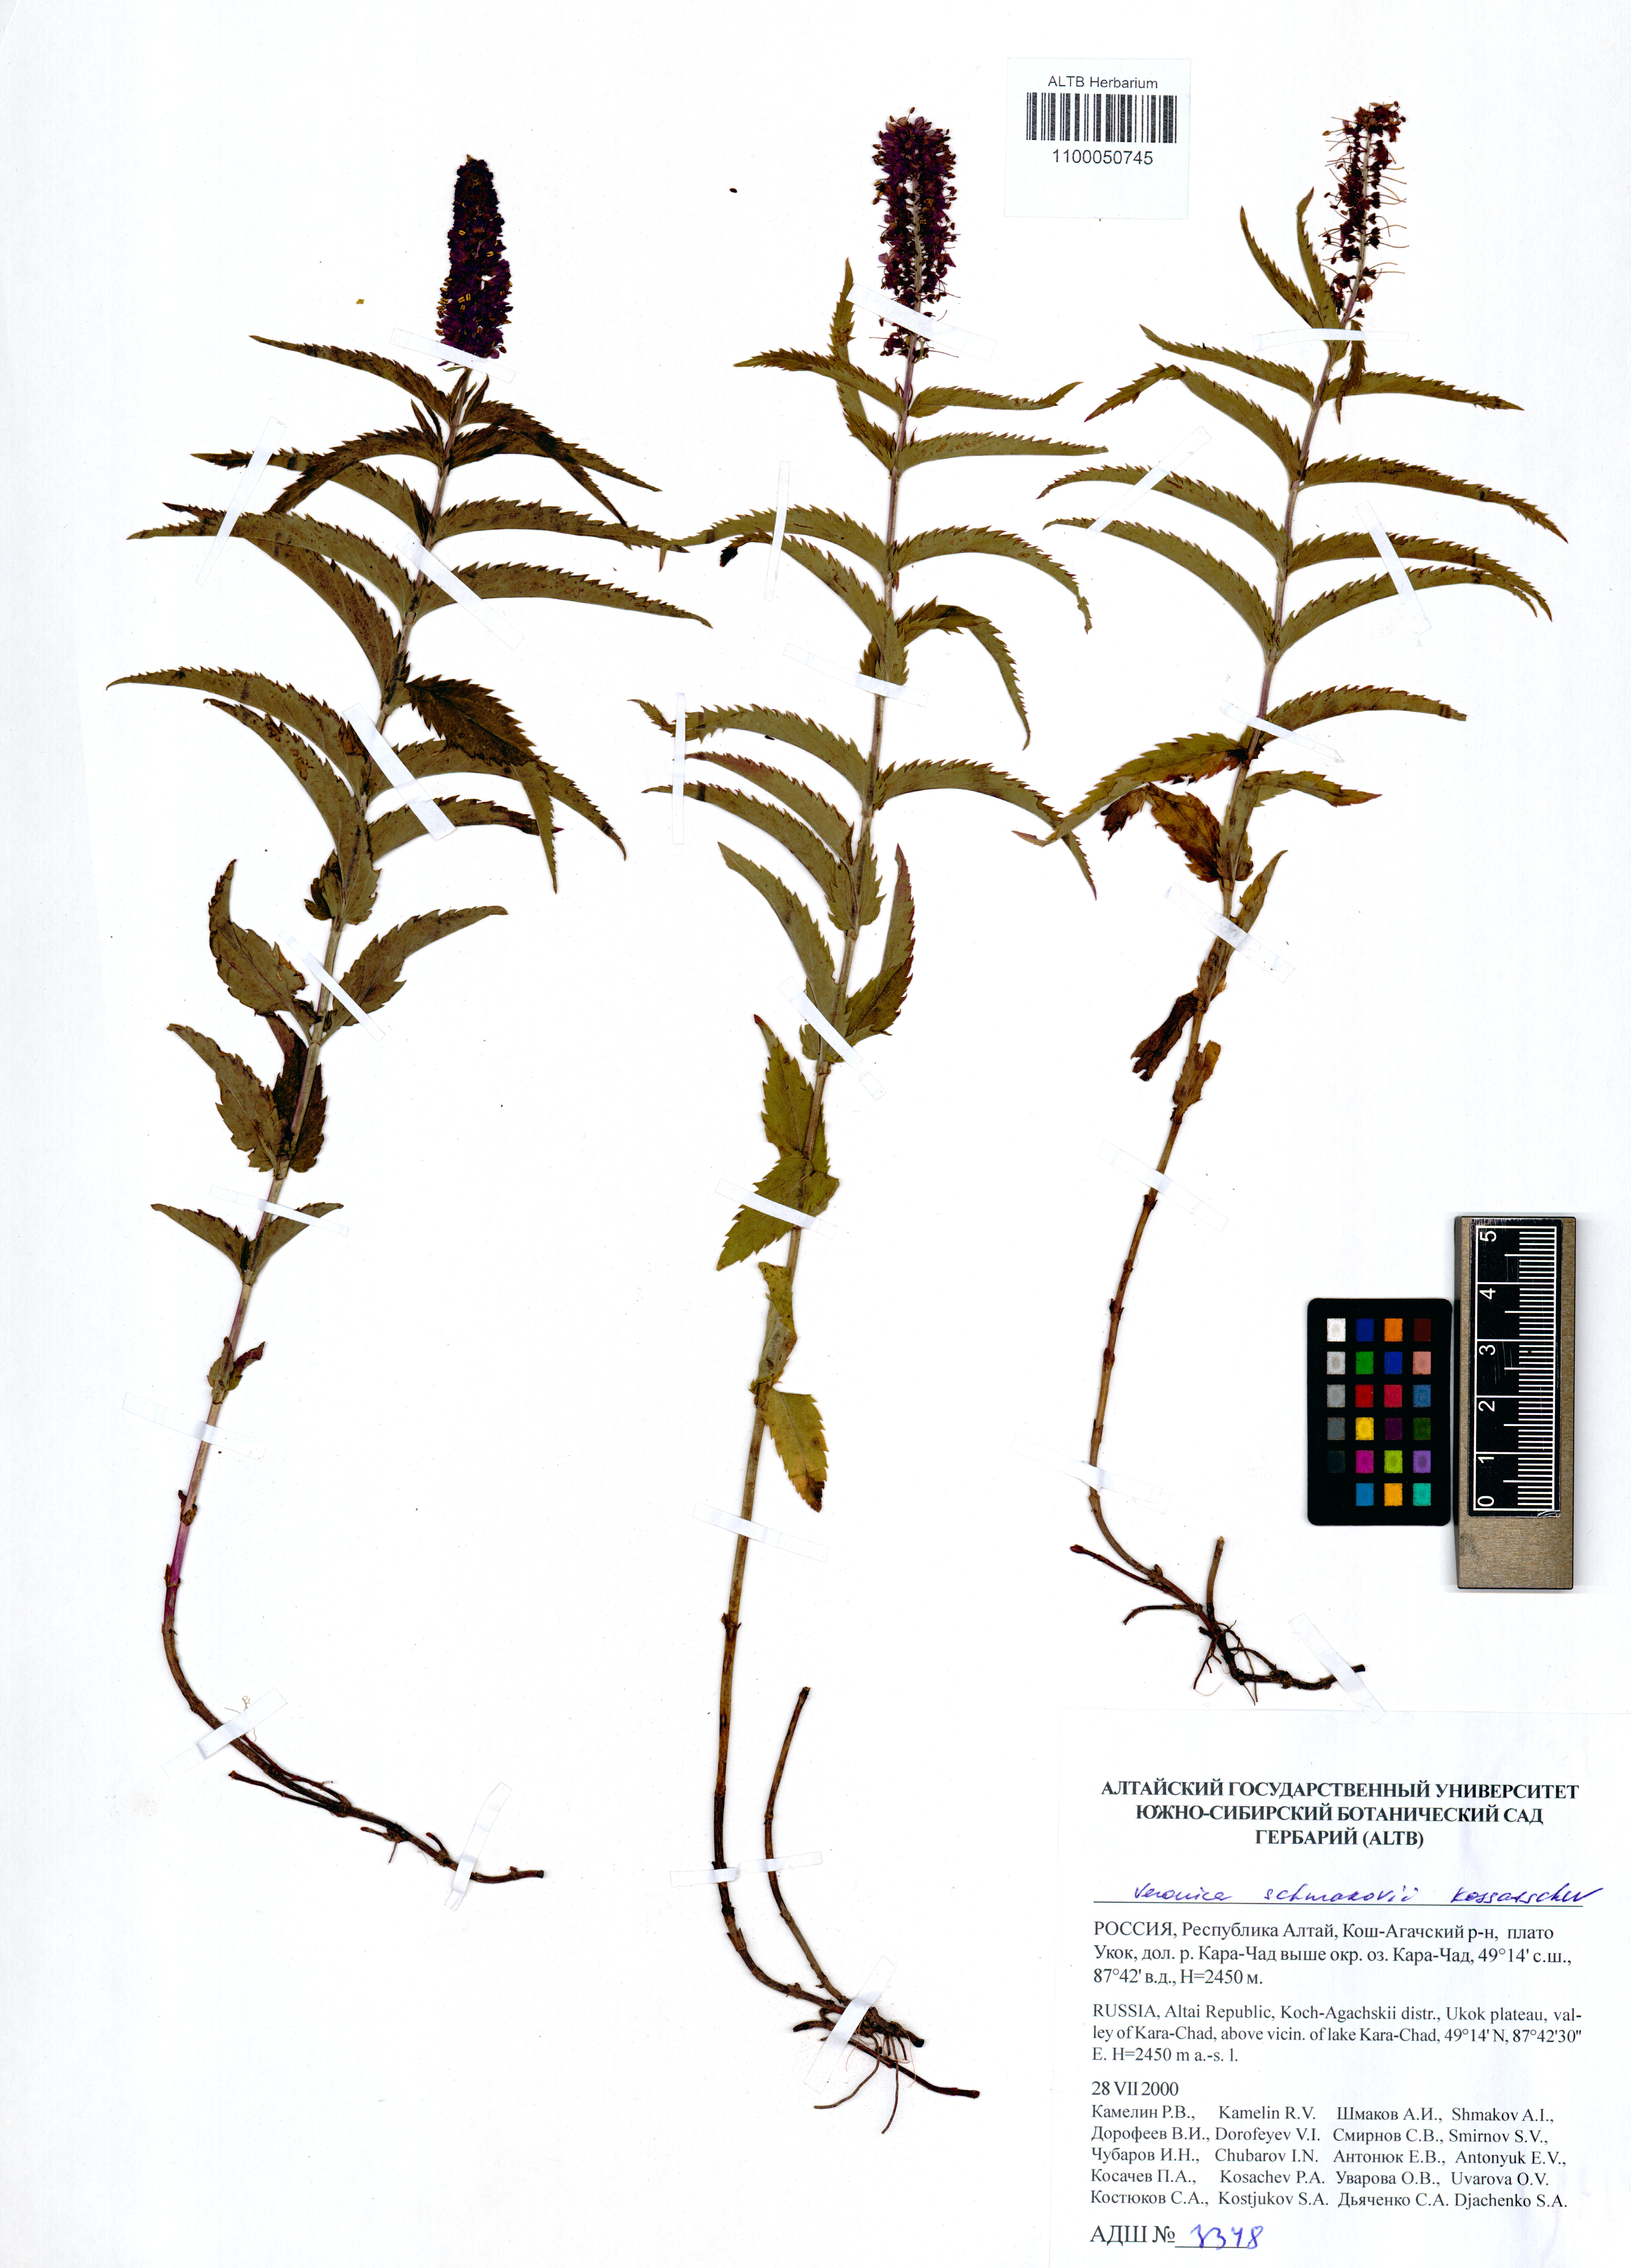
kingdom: Plantae
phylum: Tracheophyta
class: Magnoliopsida
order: Lamiales
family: Plantaginaceae
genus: Veronica
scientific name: Veronica schmakovii
